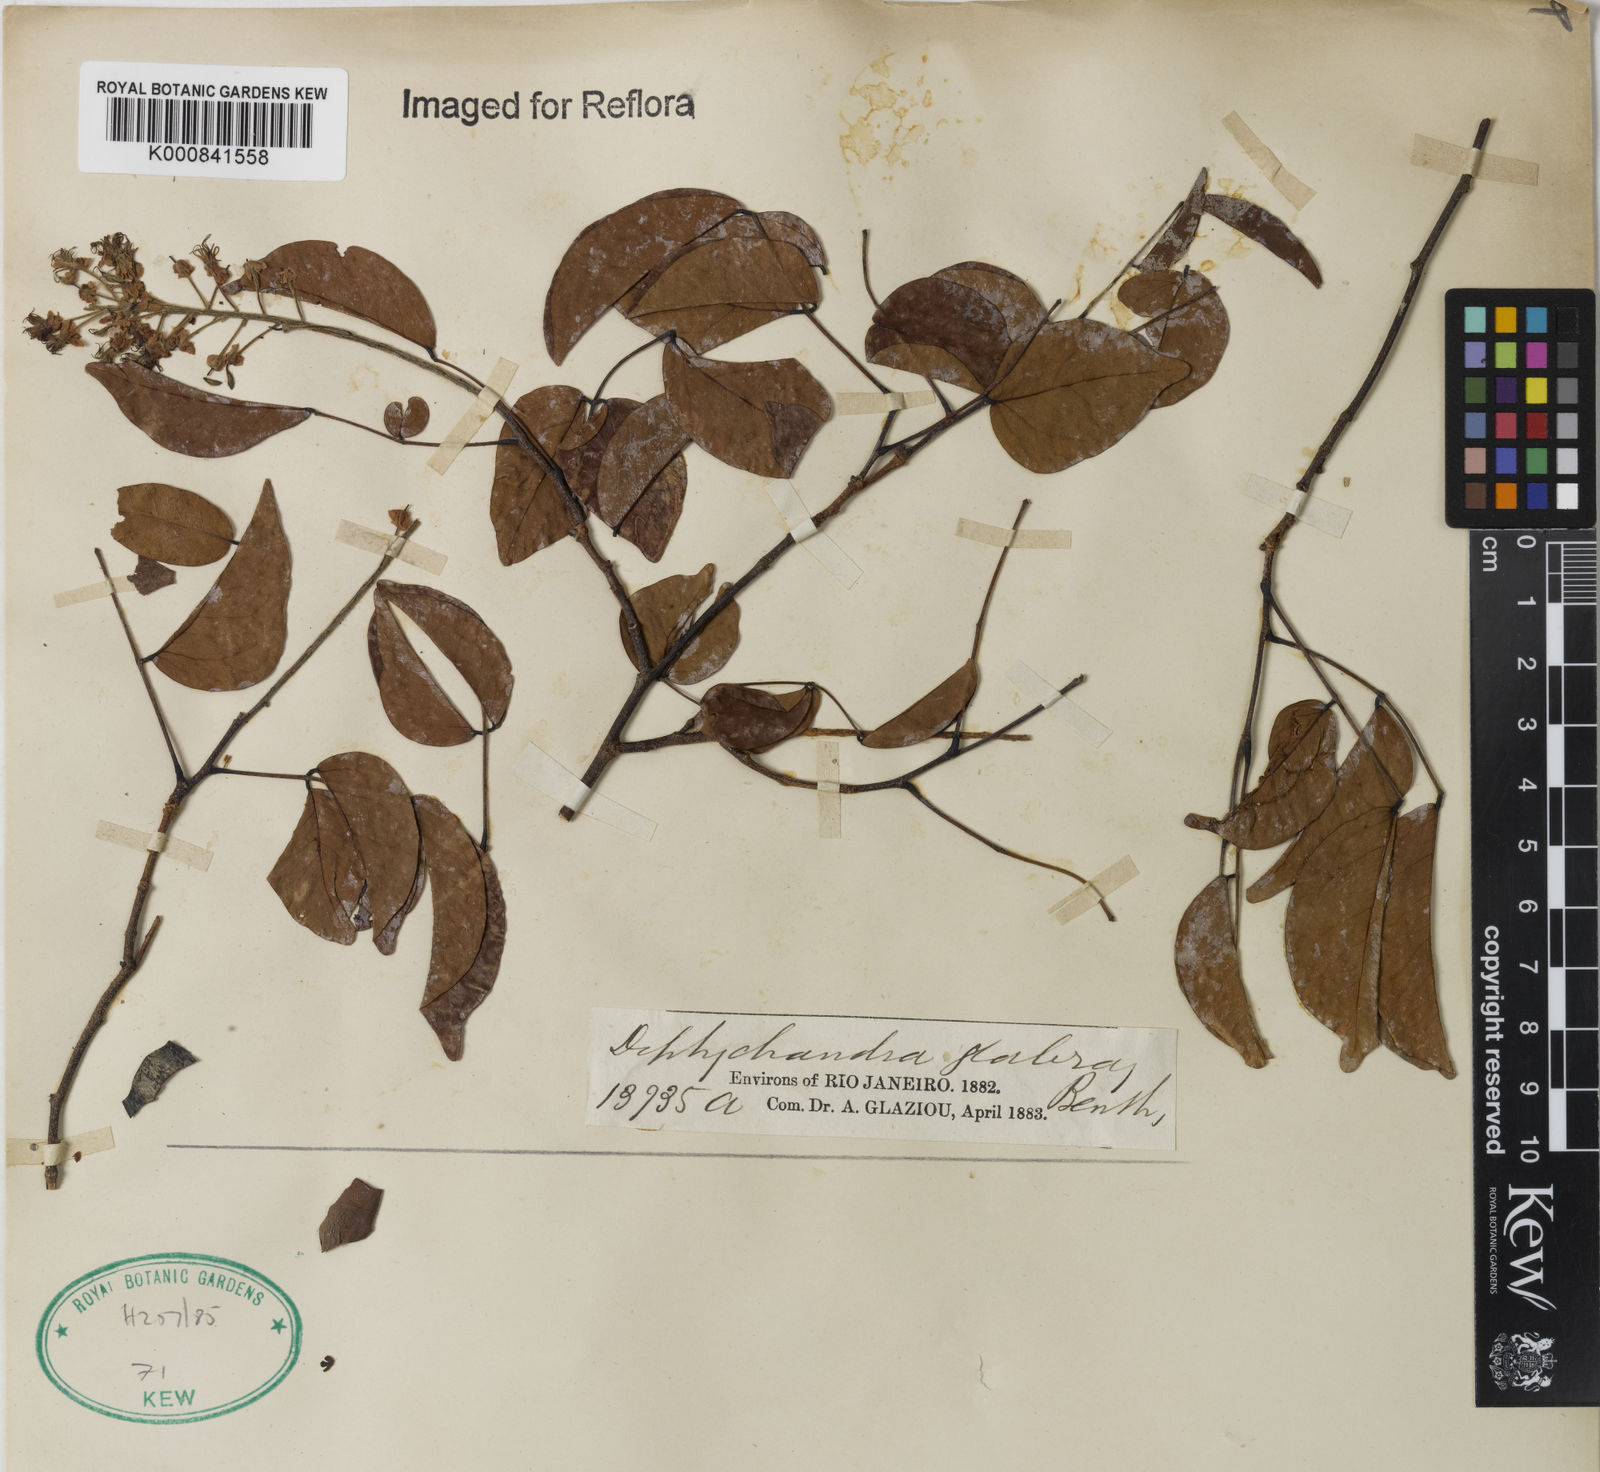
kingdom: Plantae
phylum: Tracheophyta
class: Magnoliopsida
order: Fabales
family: Fabaceae
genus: Diptychandra
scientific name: Diptychandra
